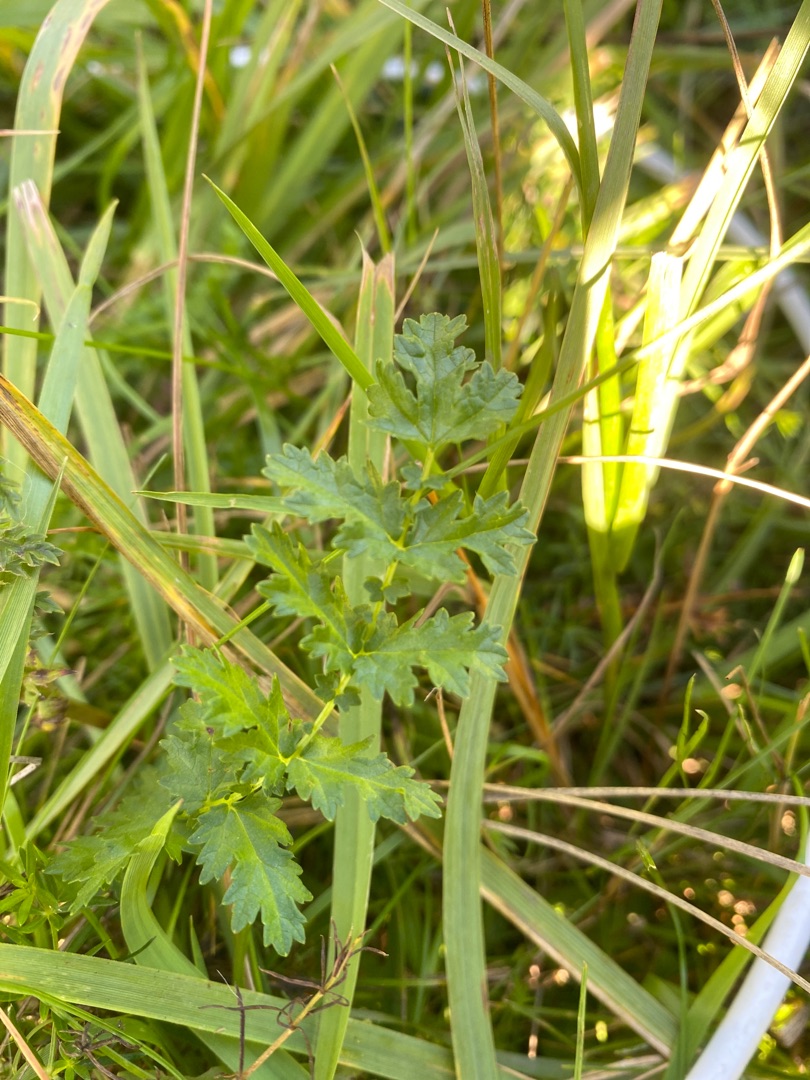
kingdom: Plantae
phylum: Tracheophyta
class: Magnoliopsida
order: Rosales
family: Rosaceae
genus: Filipendula
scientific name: Filipendula vulgaris
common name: Knoldet mjødurt
